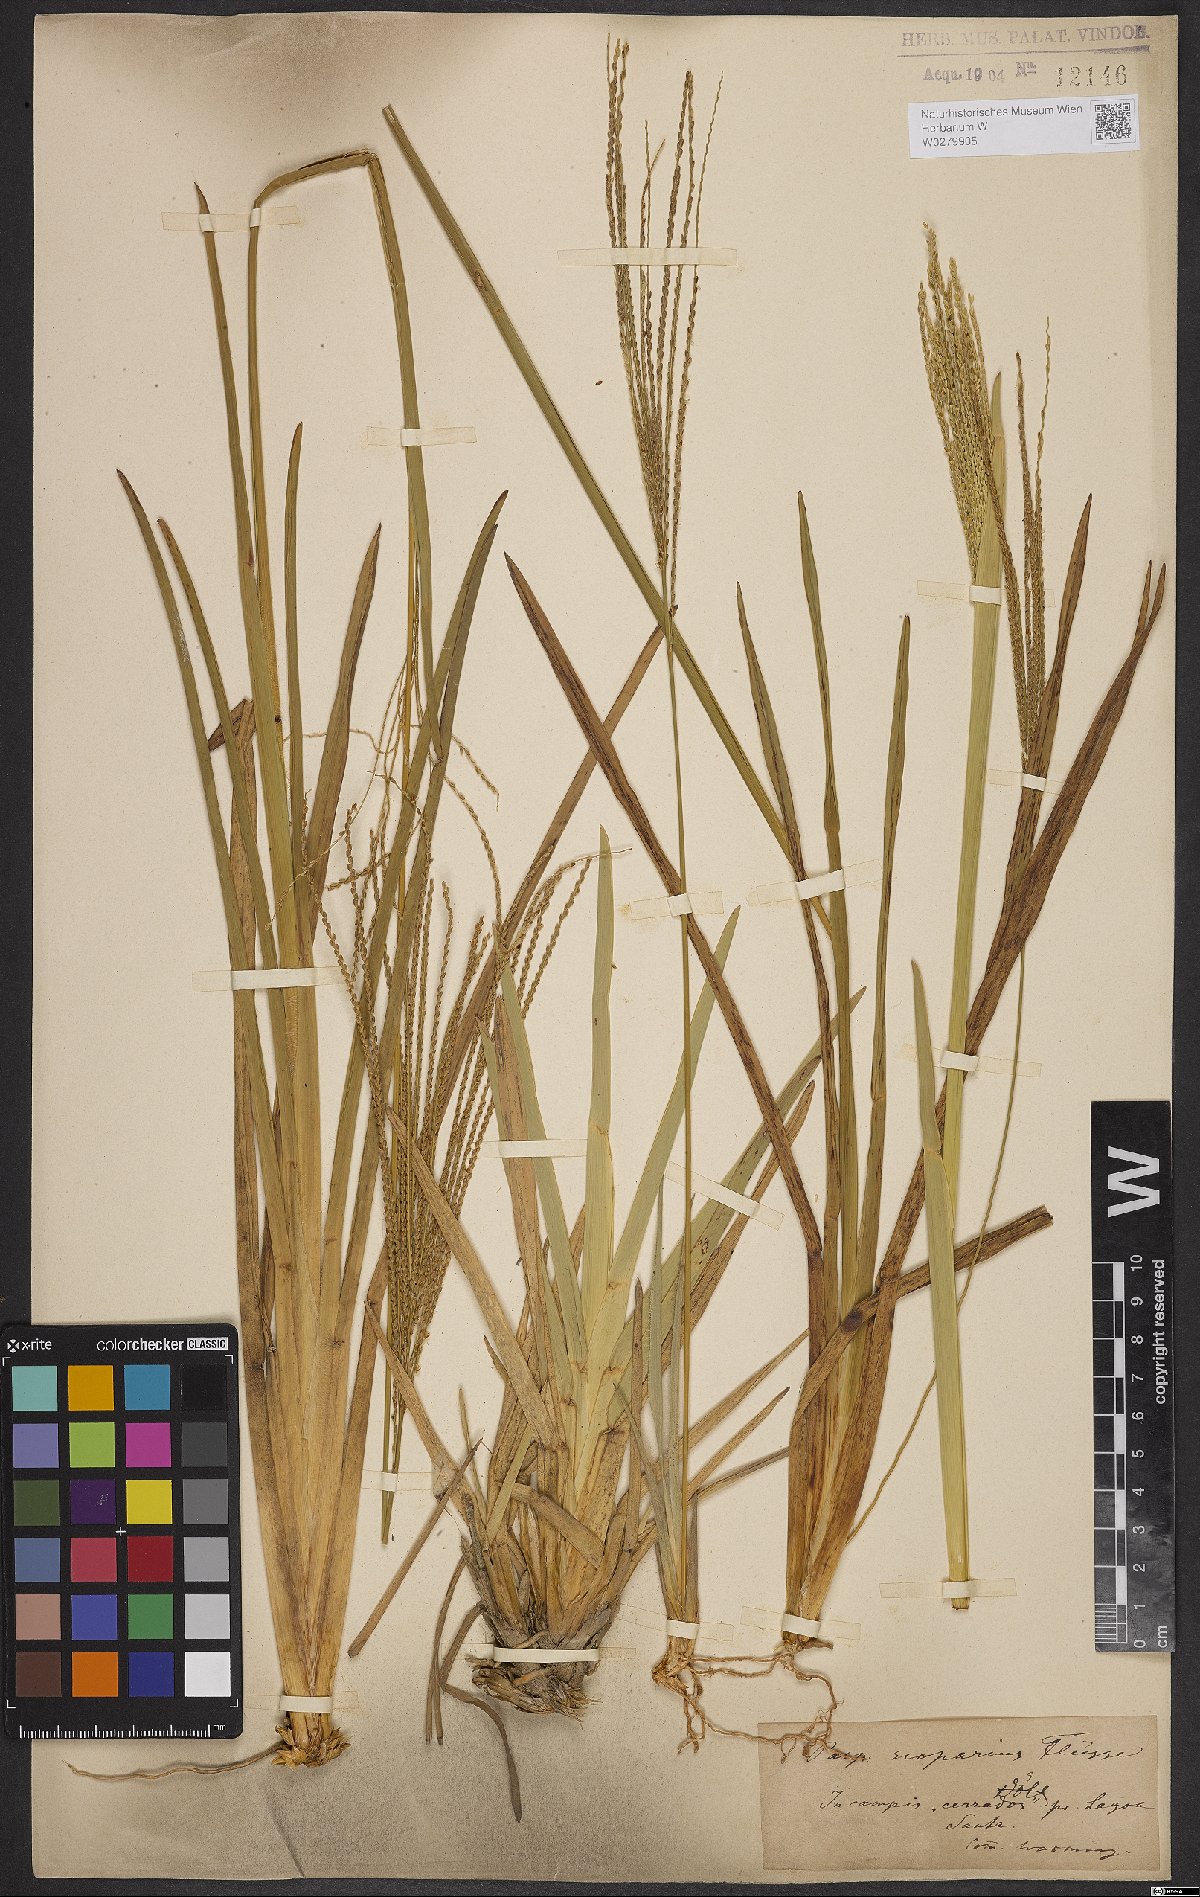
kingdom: Plantae
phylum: Tracheophyta
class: Liliopsida
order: Poales
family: Poaceae
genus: Axonopus
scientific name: Axonopus scoparius
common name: Imperial grass
